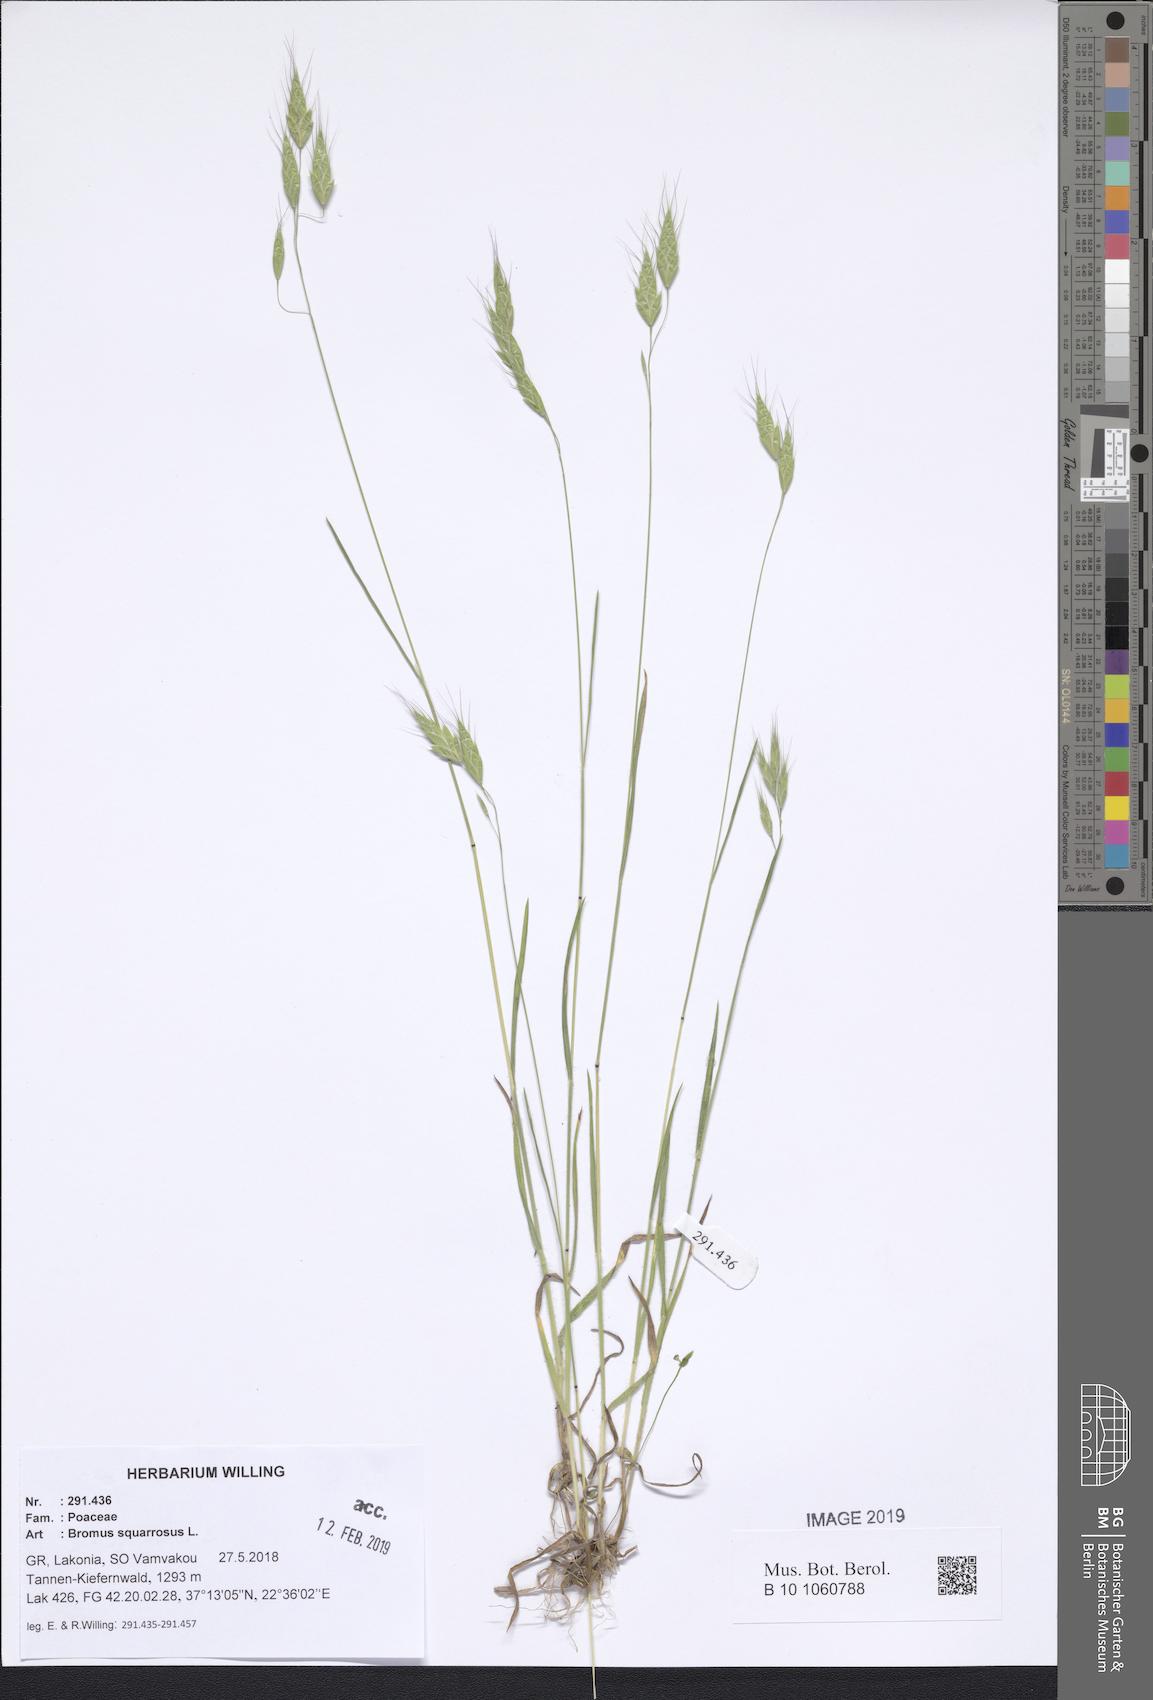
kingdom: Plantae
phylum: Tracheophyta
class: Liliopsida
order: Poales
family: Poaceae
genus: Bromus
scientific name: Bromus squarrosus
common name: Corn brome
